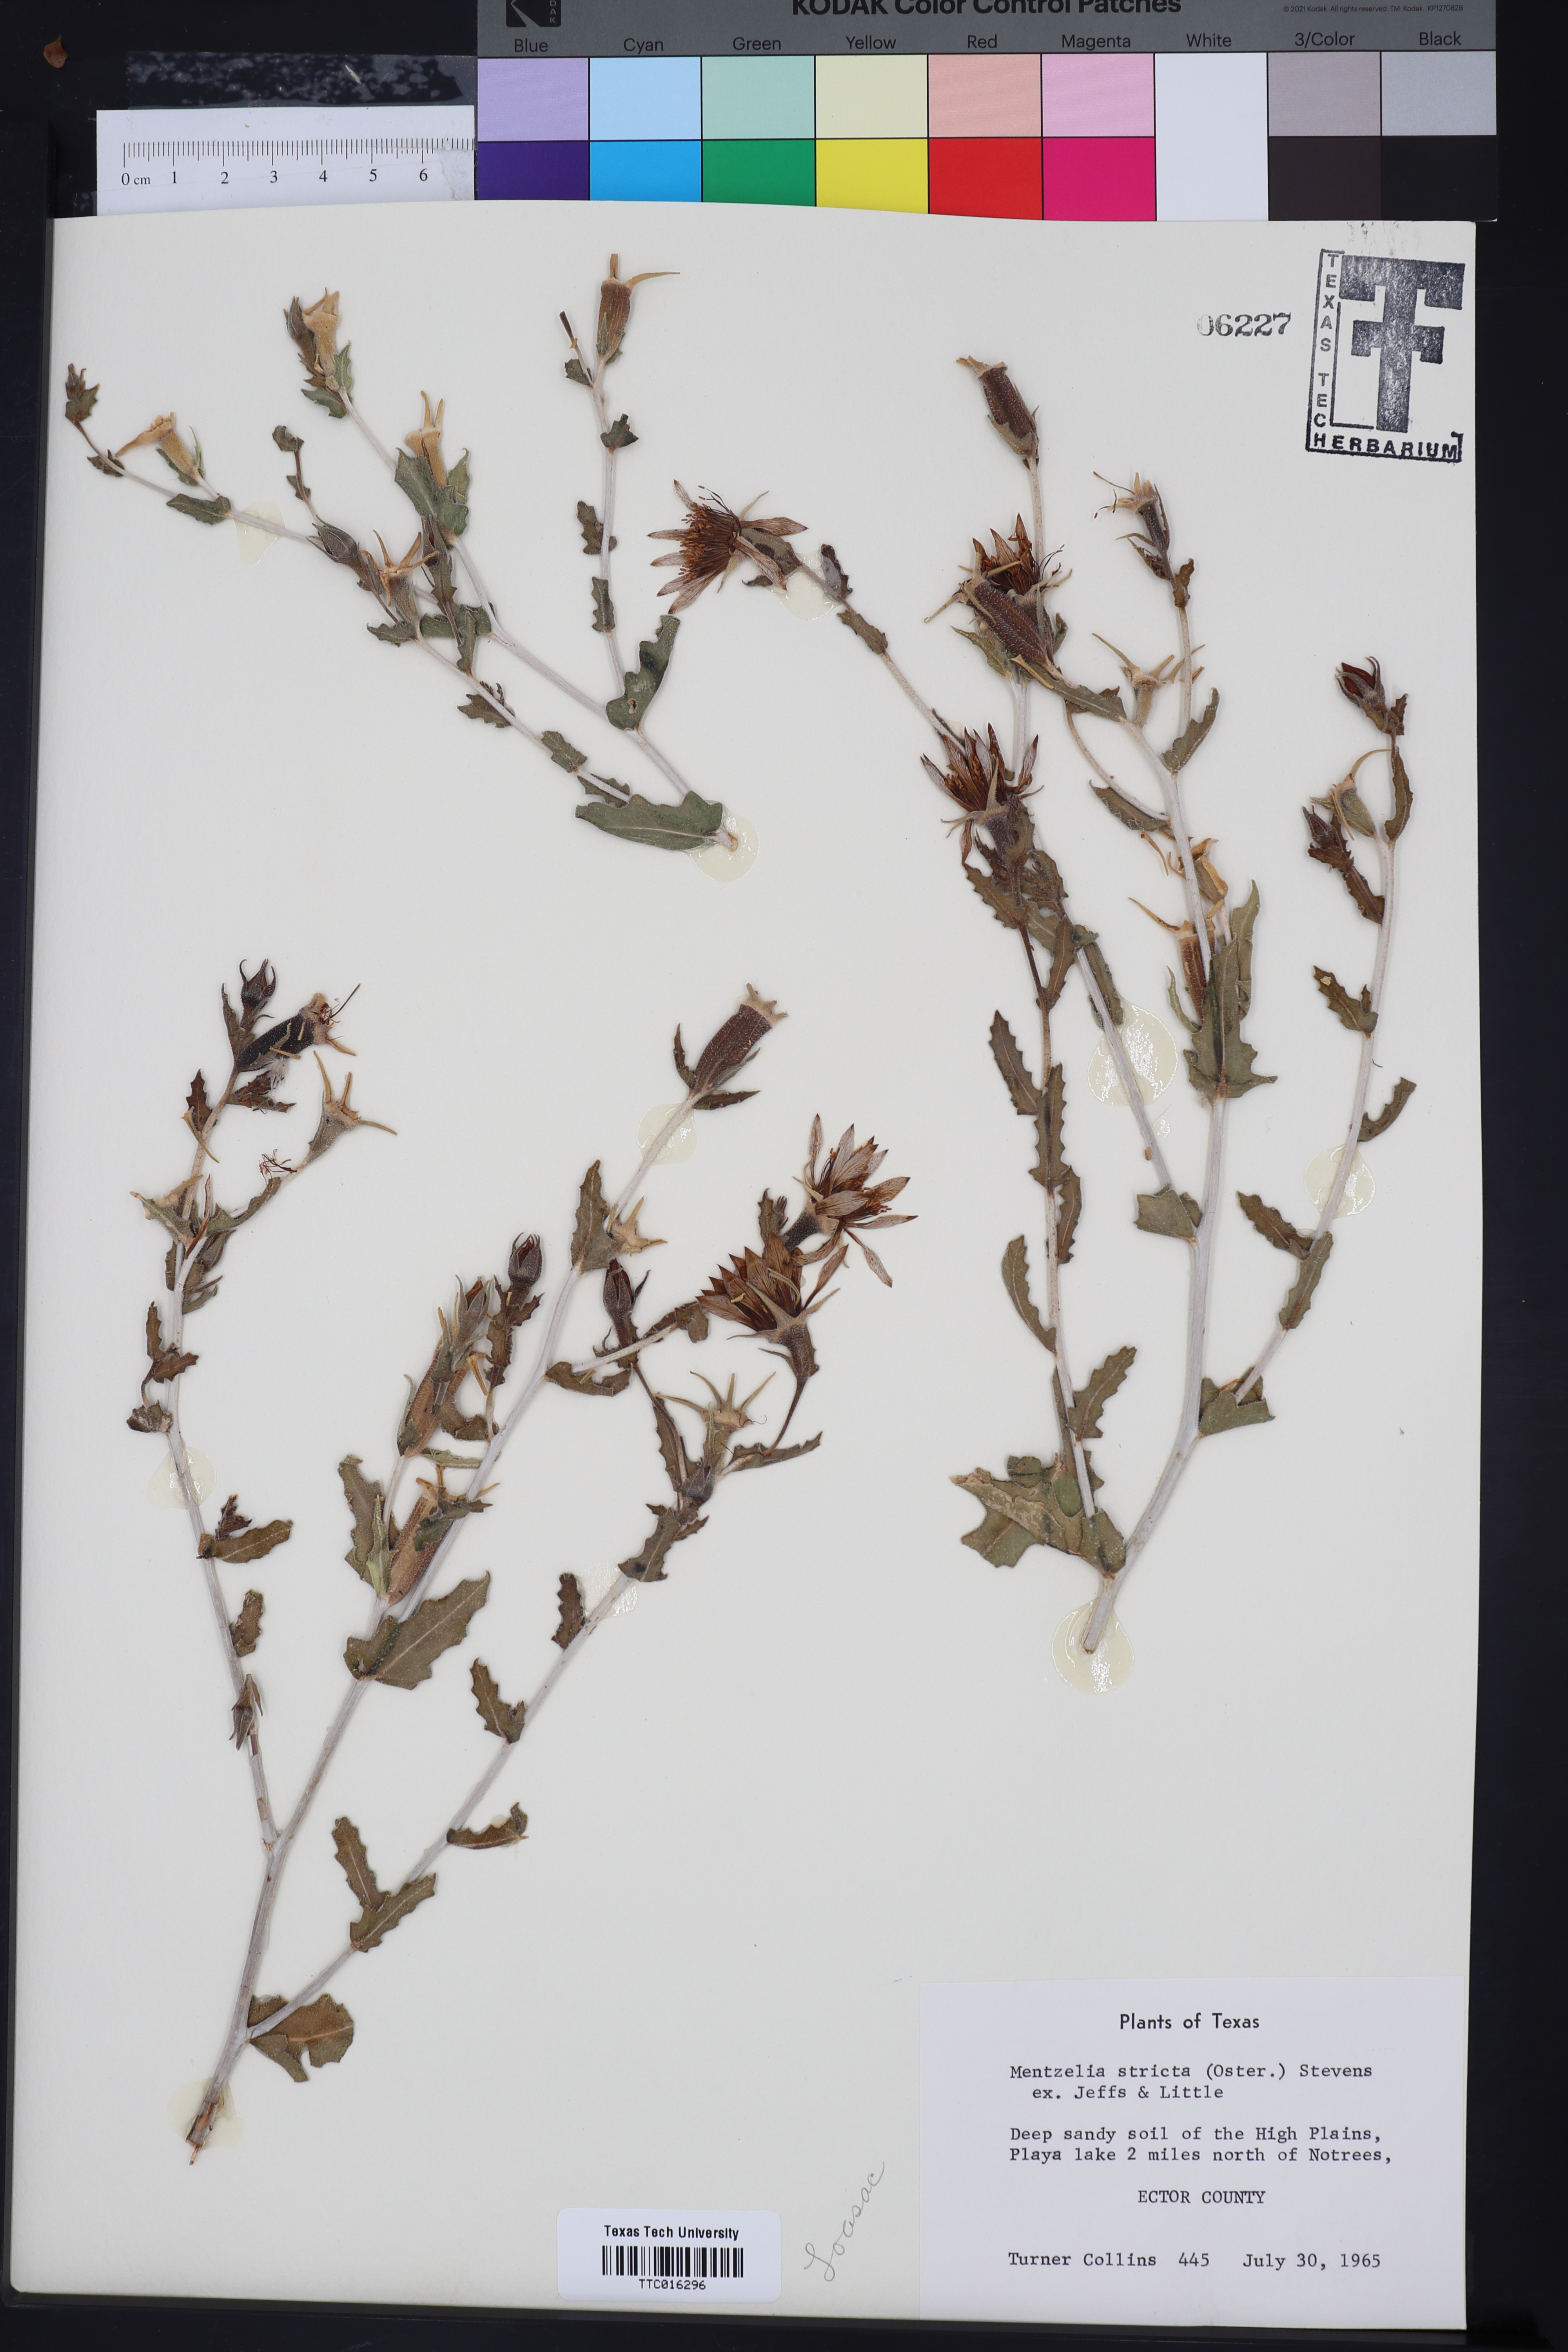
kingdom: Plantae
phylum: Tracheophyta
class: Magnoliopsida
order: Cornales
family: Loasaceae
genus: Mentzelia
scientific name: Mentzelia nuda
